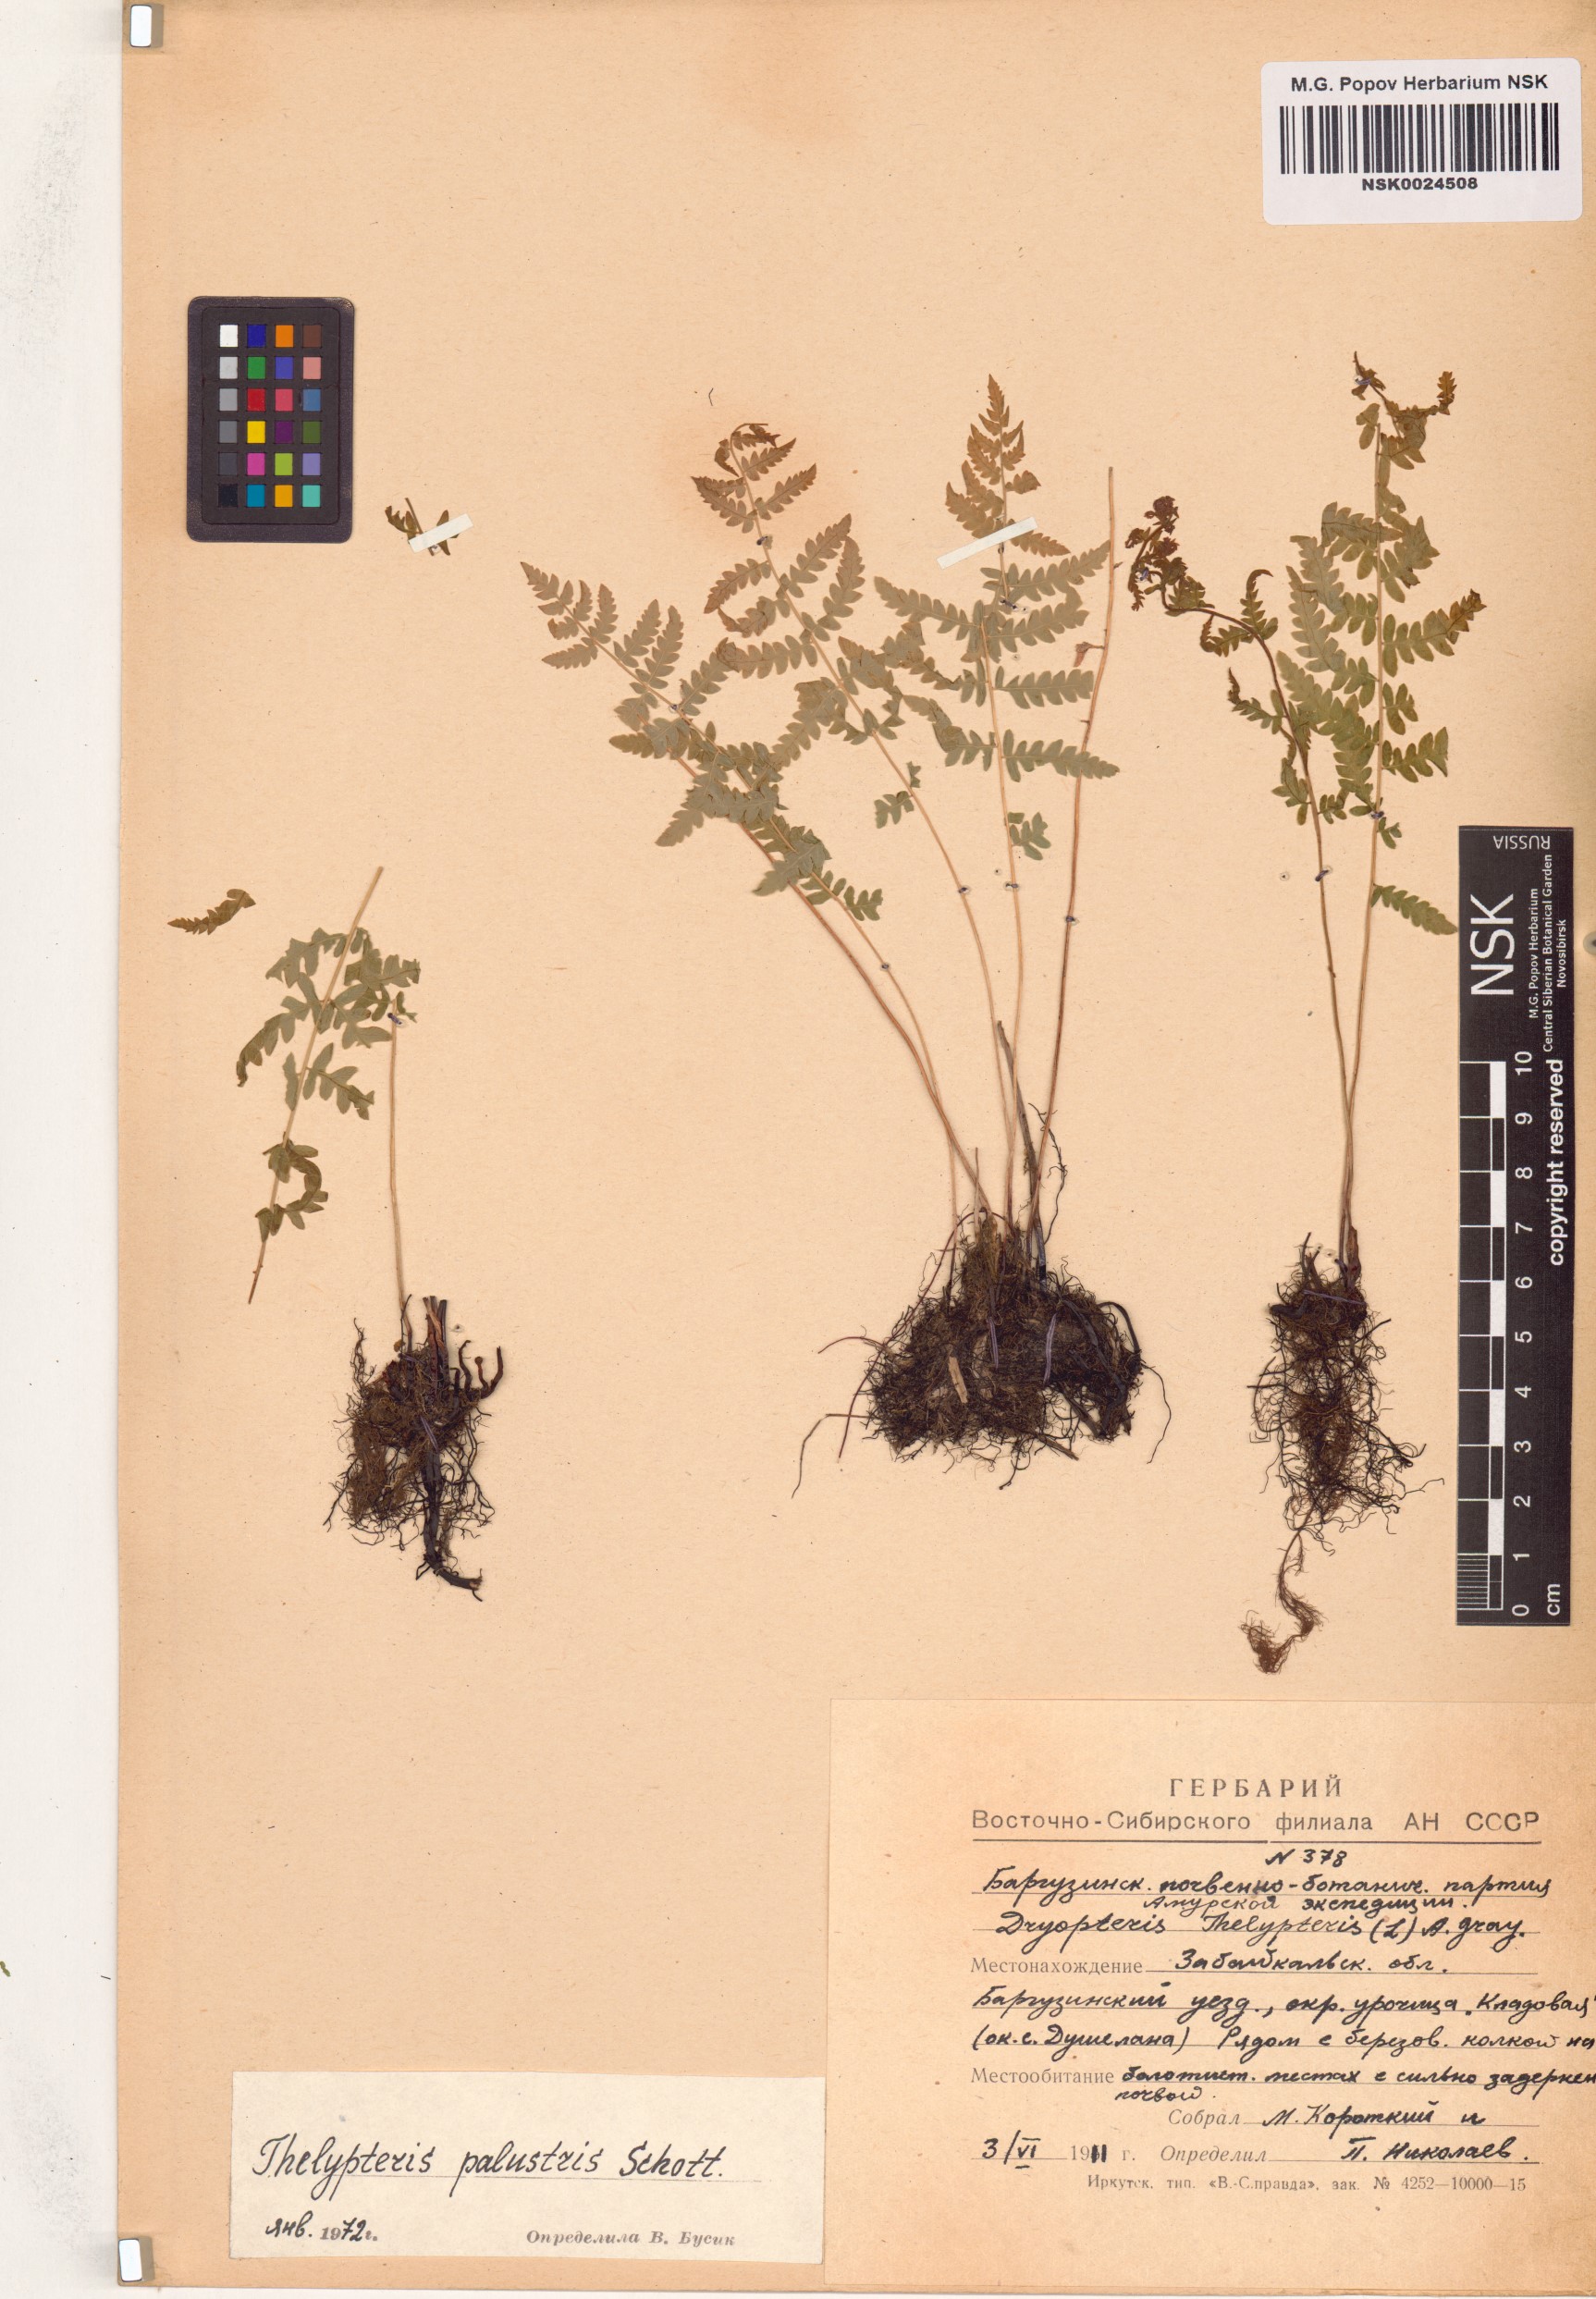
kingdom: Plantae
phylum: Tracheophyta
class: Polypodiopsida
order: Polypodiales
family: Thelypteridaceae
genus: Thelypteris
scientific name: Thelypteris palustris
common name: Marsh fern
